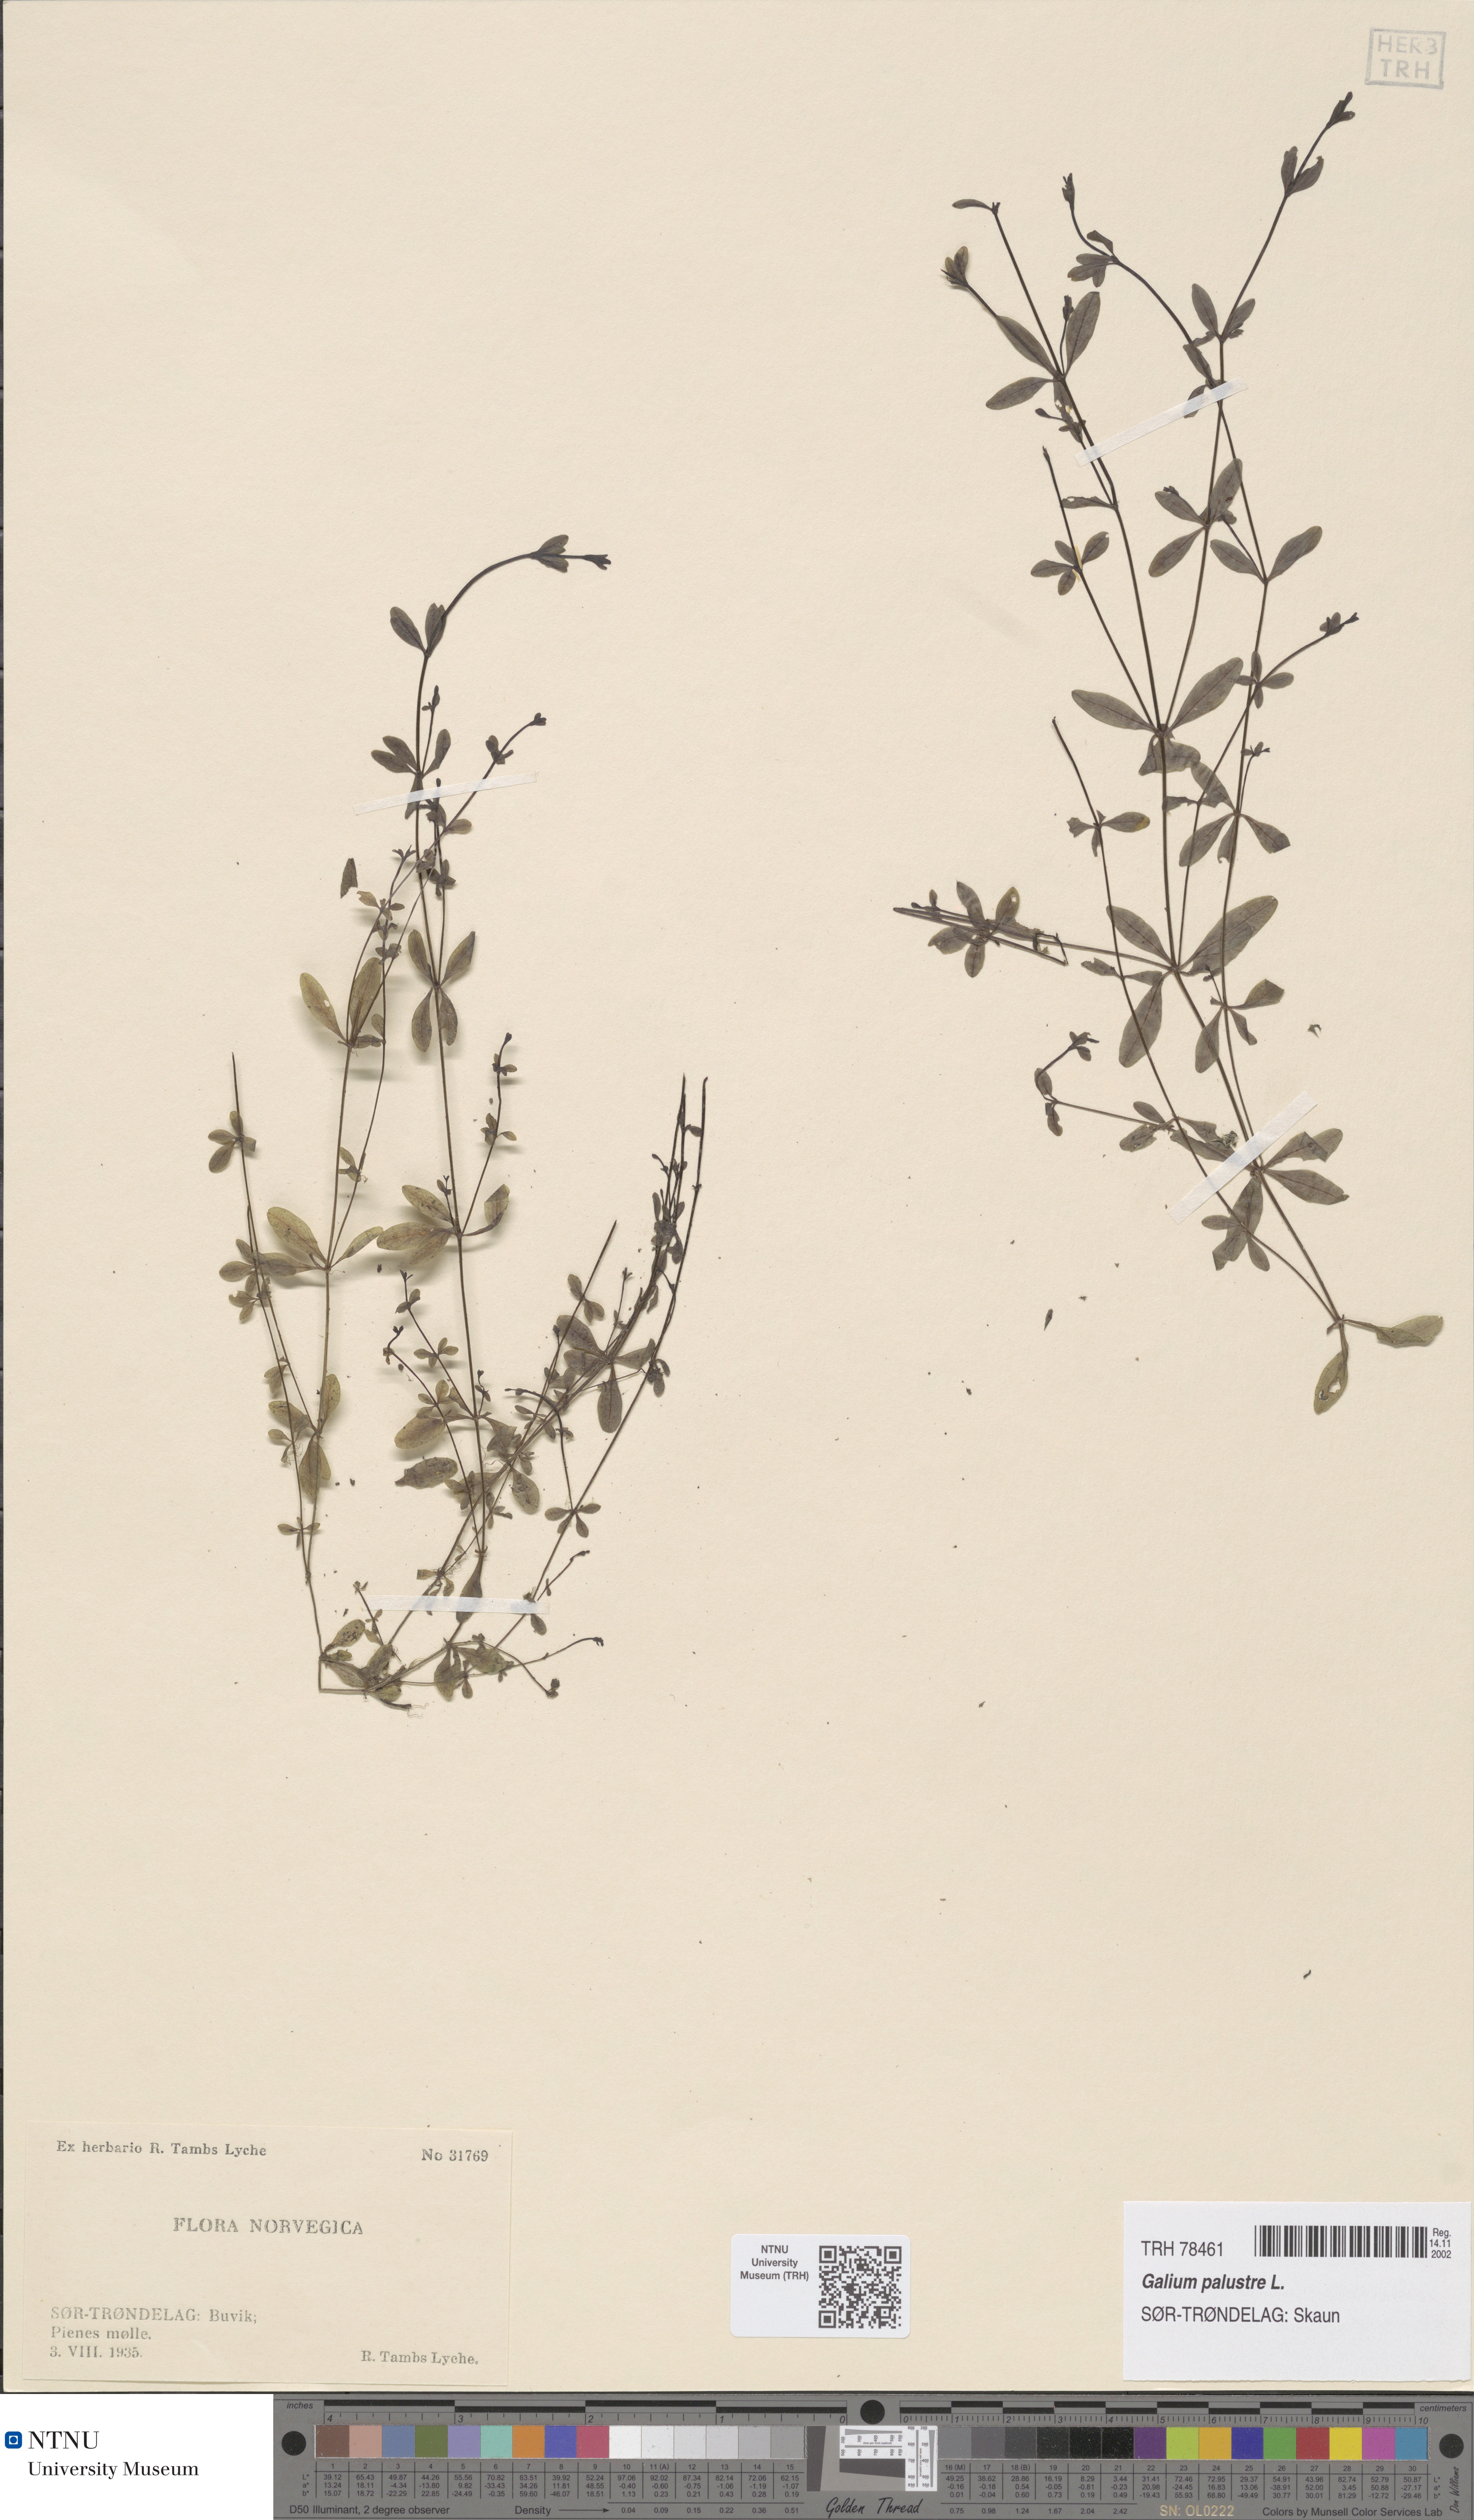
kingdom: Plantae
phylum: Tracheophyta
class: Magnoliopsida
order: Gentianales
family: Rubiaceae
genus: Galium
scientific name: Galium palustre
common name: Common marsh-bedstraw
